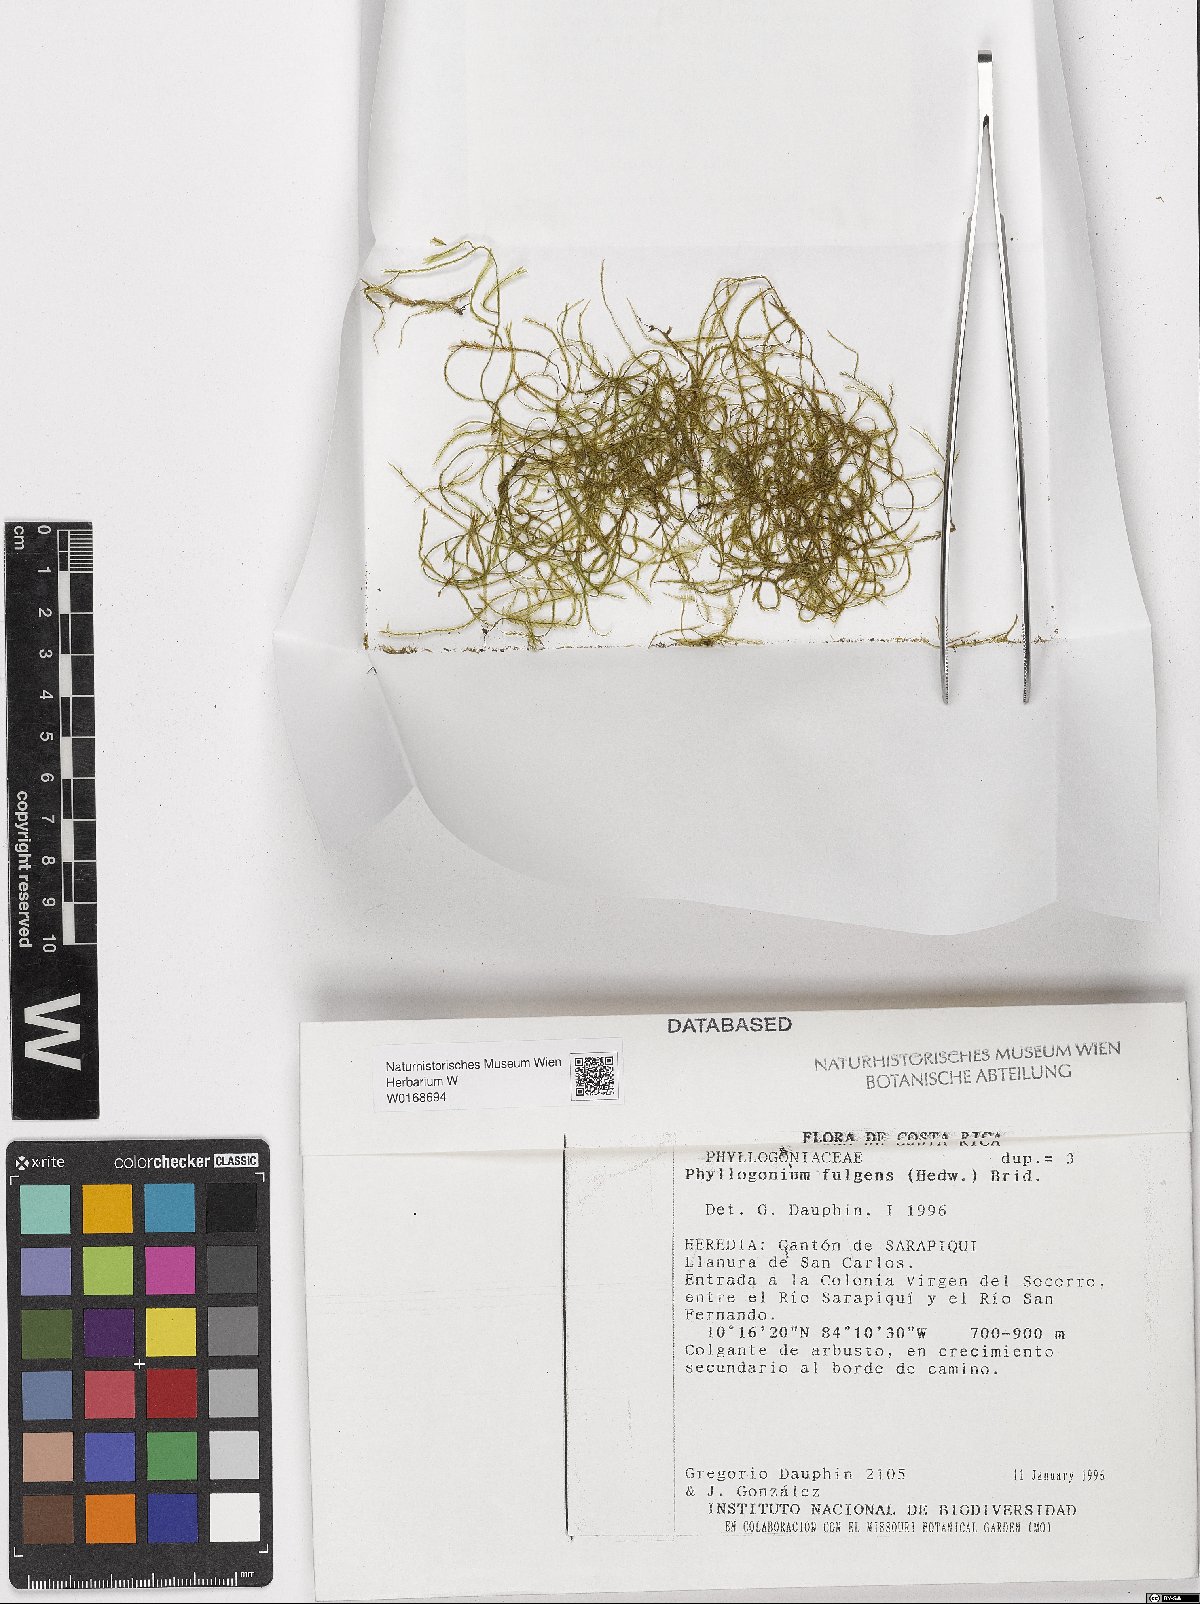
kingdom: Plantae
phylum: Bryophyta
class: Bryopsida
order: Hypnales
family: Phyllogoniaceae
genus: Phyllogonium
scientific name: Phyllogonium fulgens
